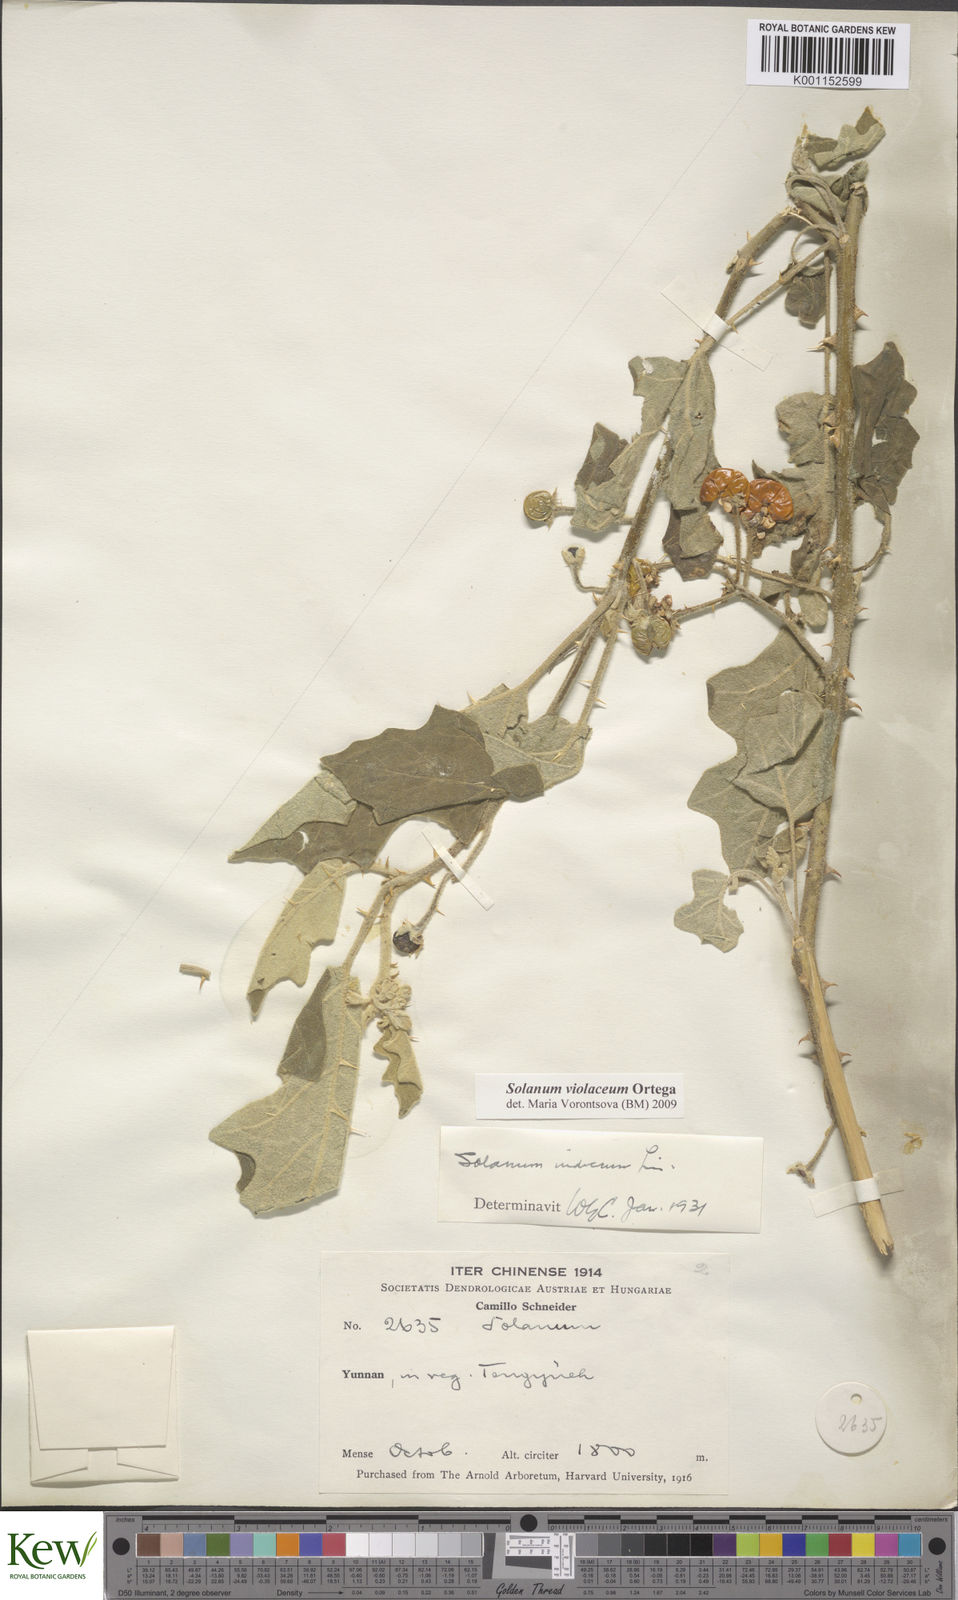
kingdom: Plantae
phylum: Tracheophyta
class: Magnoliopsida
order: Solanales
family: Solanaceae
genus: Solanum
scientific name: Solanum violaceum
